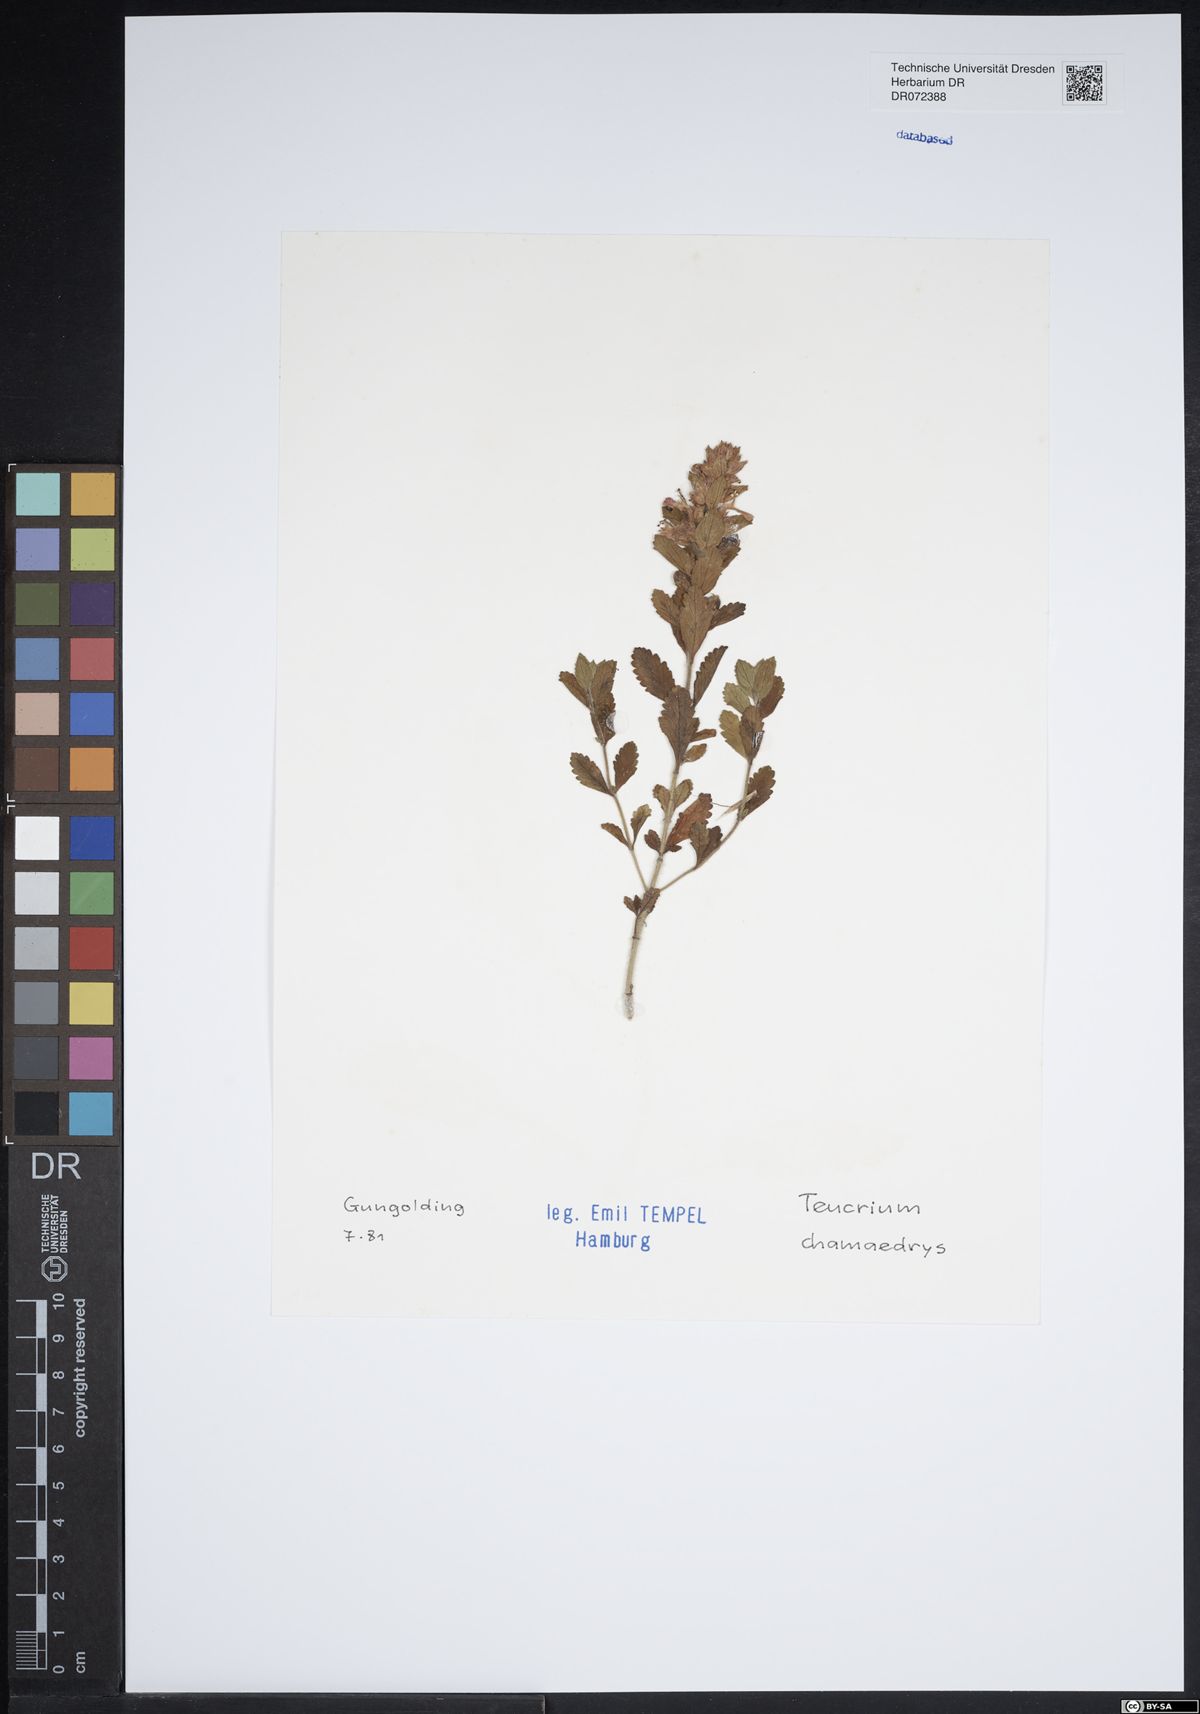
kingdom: Plantae
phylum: Tracheophyta
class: Magnoliopsida
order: Lamiales
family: Lamiaceae
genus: Teucrium
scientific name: Teucrium chamaedrys
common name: Wall germander
